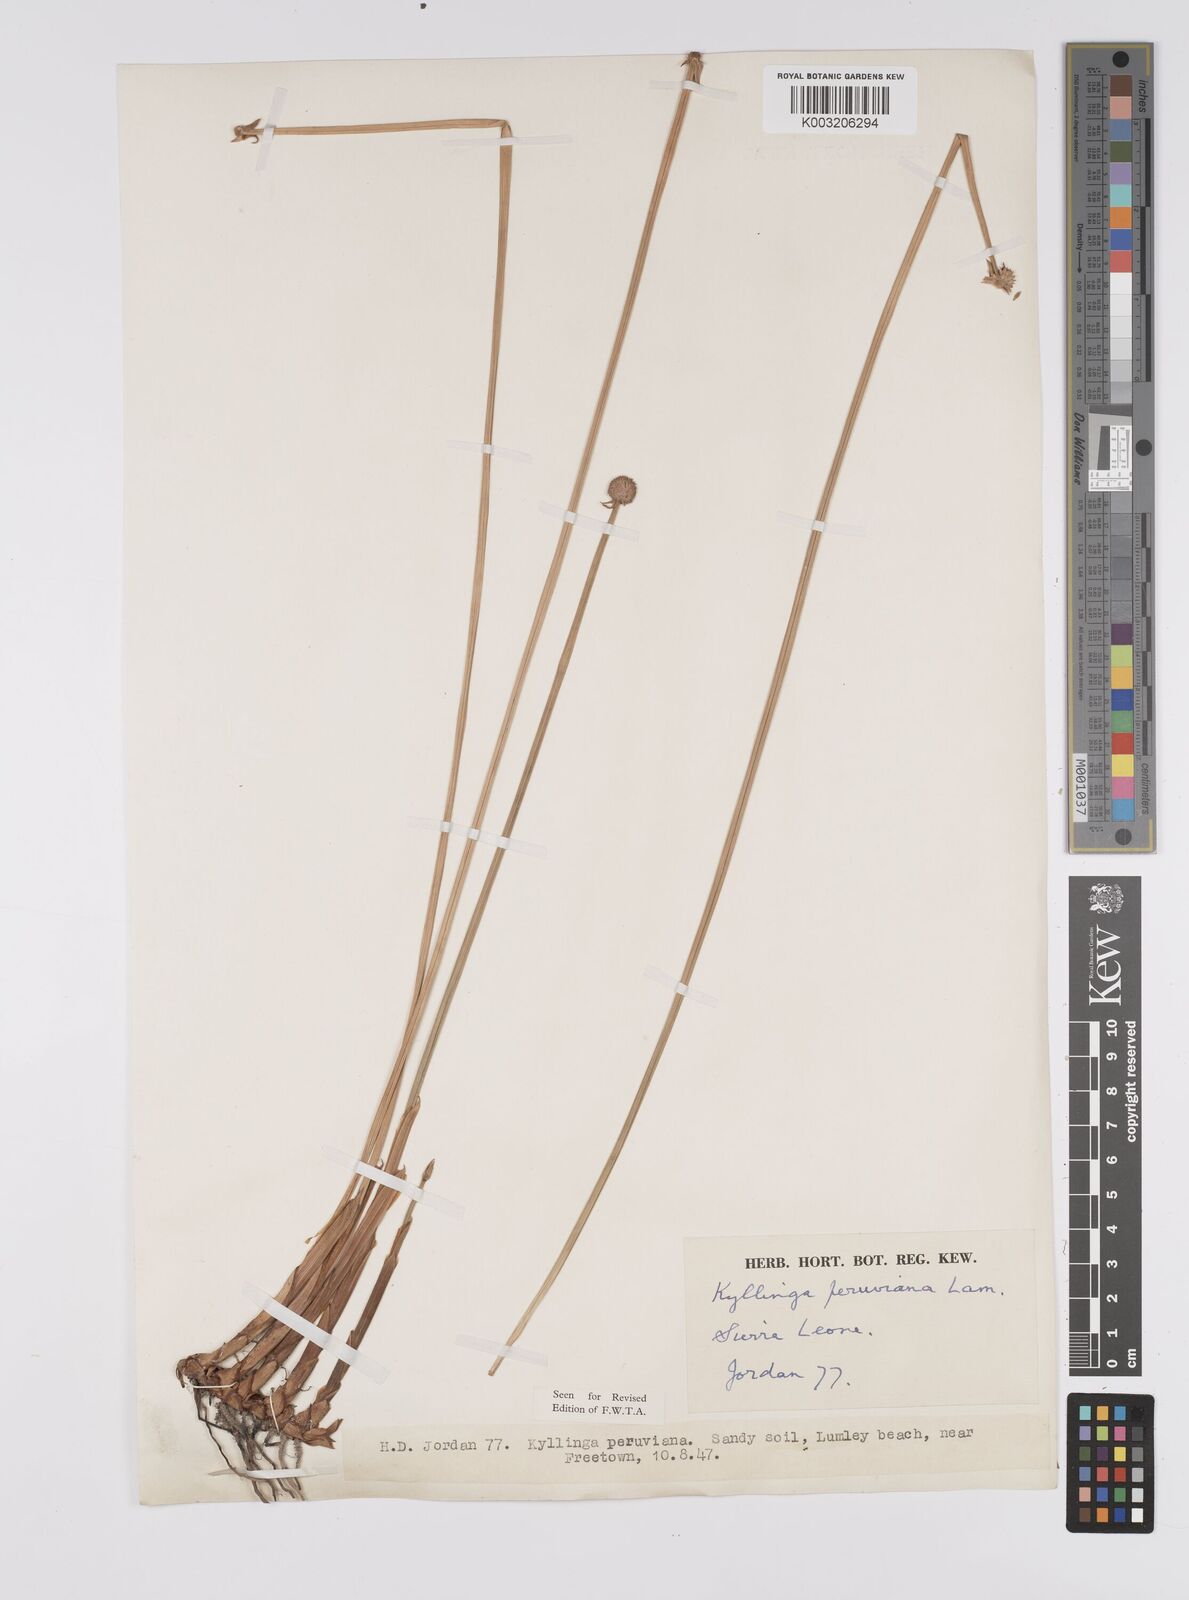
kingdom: Plantae
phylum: Tracheophyta
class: Liliopsida
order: Poales
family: Cyperaceae
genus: Cyperus
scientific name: Cyperus obtusatus
